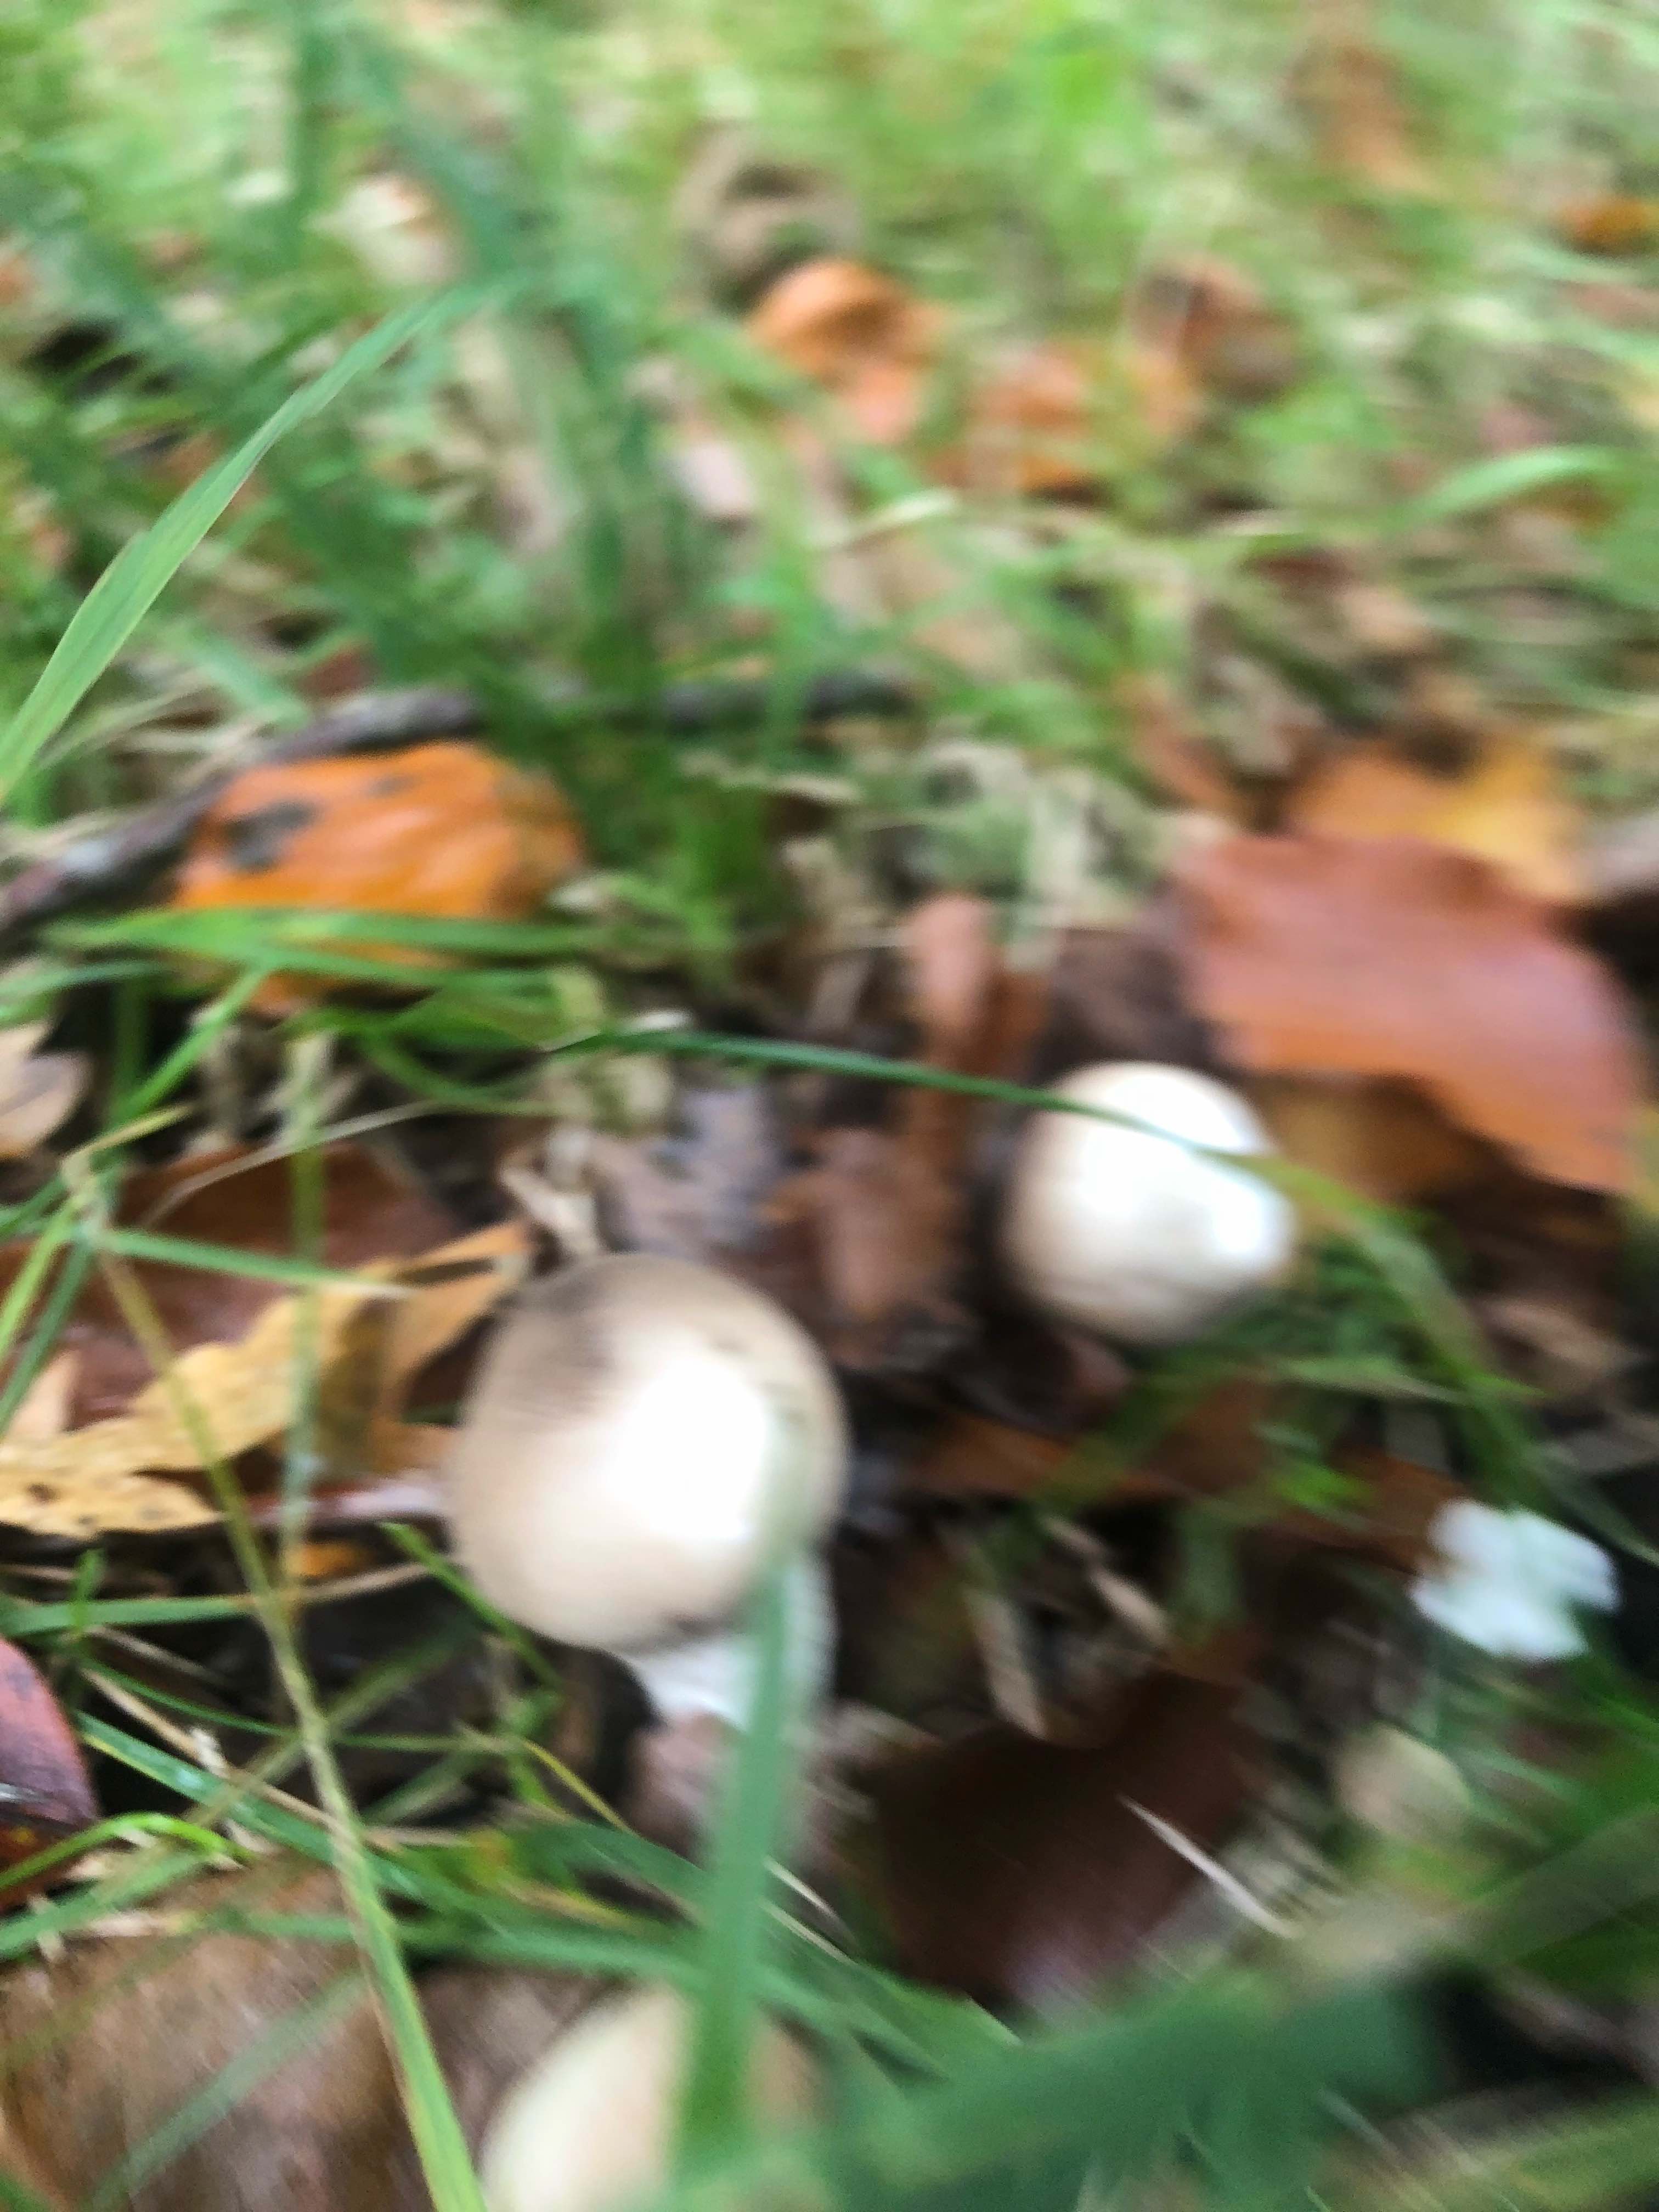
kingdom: Fungi
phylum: Basidiomycota
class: Agaricomycetes
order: Agaricales
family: Lycoperdaceae
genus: Apioperdon
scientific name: Apioperdon pyriforme
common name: pære-støvbold
